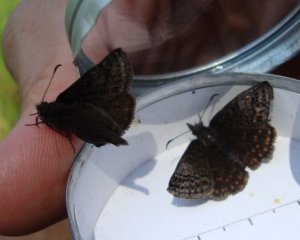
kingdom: Animalia
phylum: Arthropoda
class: Insecta
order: Lepidoptera
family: Hesperiidae
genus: Erynnis
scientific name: Erynnis icelus
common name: Dreamy Duskywing
